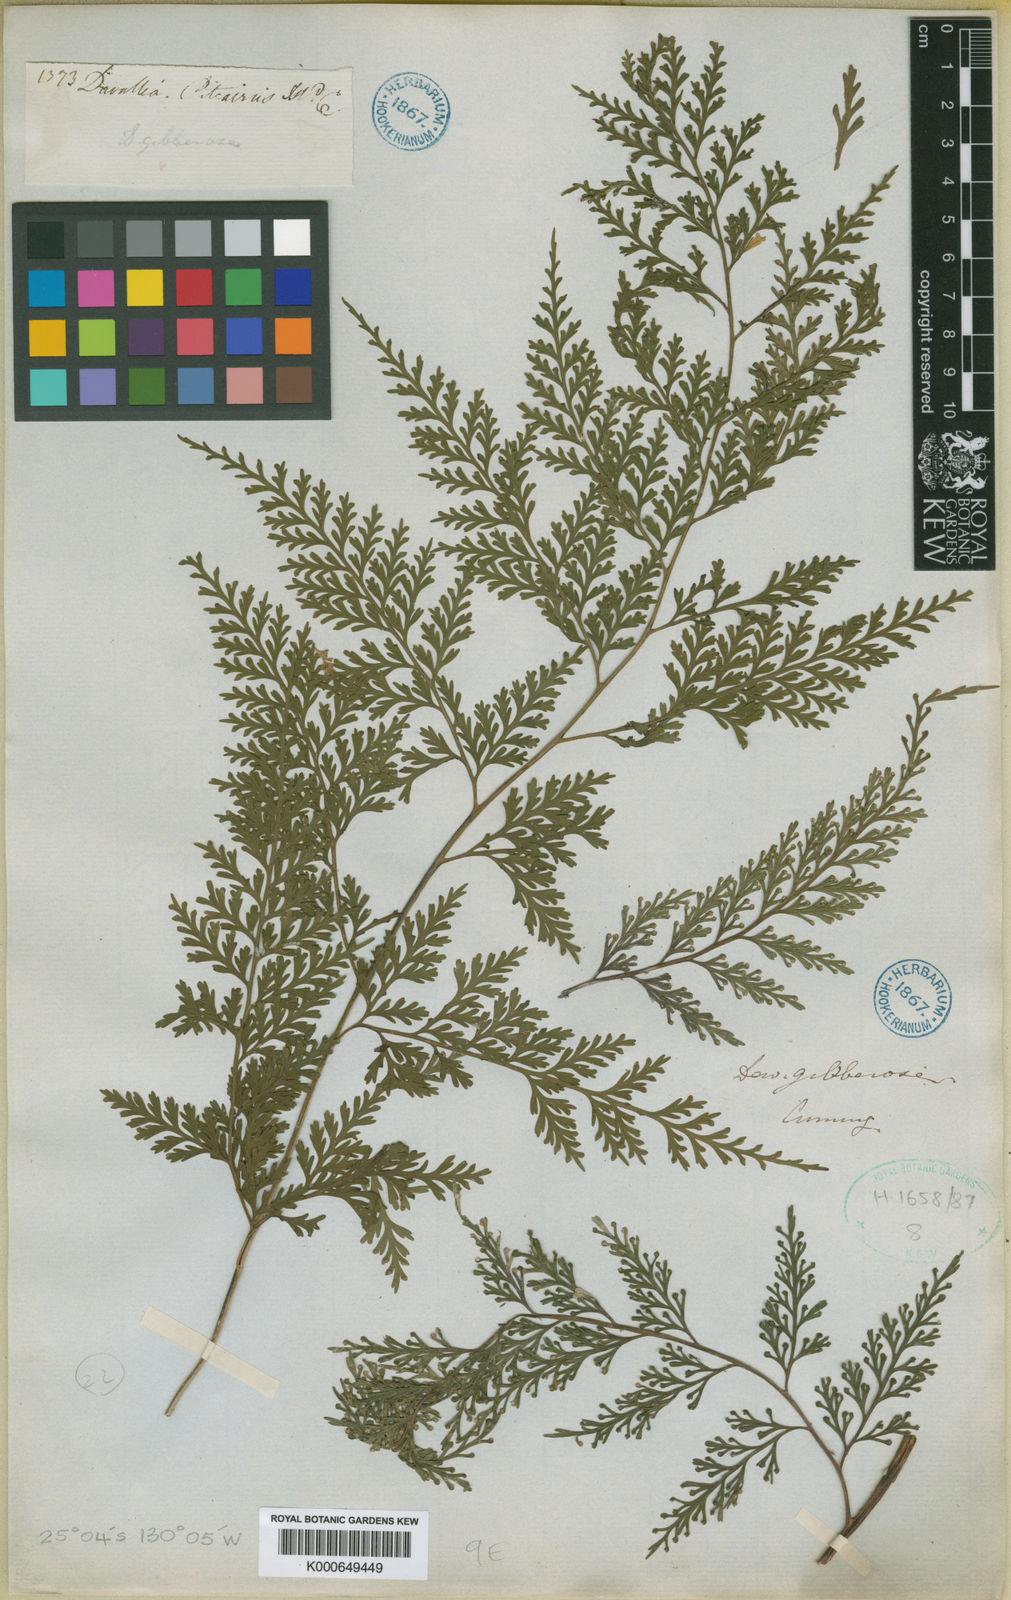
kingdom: Plantae
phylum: Tracheophyta
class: Polypodiopsida
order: Polypodiales
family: Aspleniaceae
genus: Asplenium
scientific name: Asplenium gibberosum
